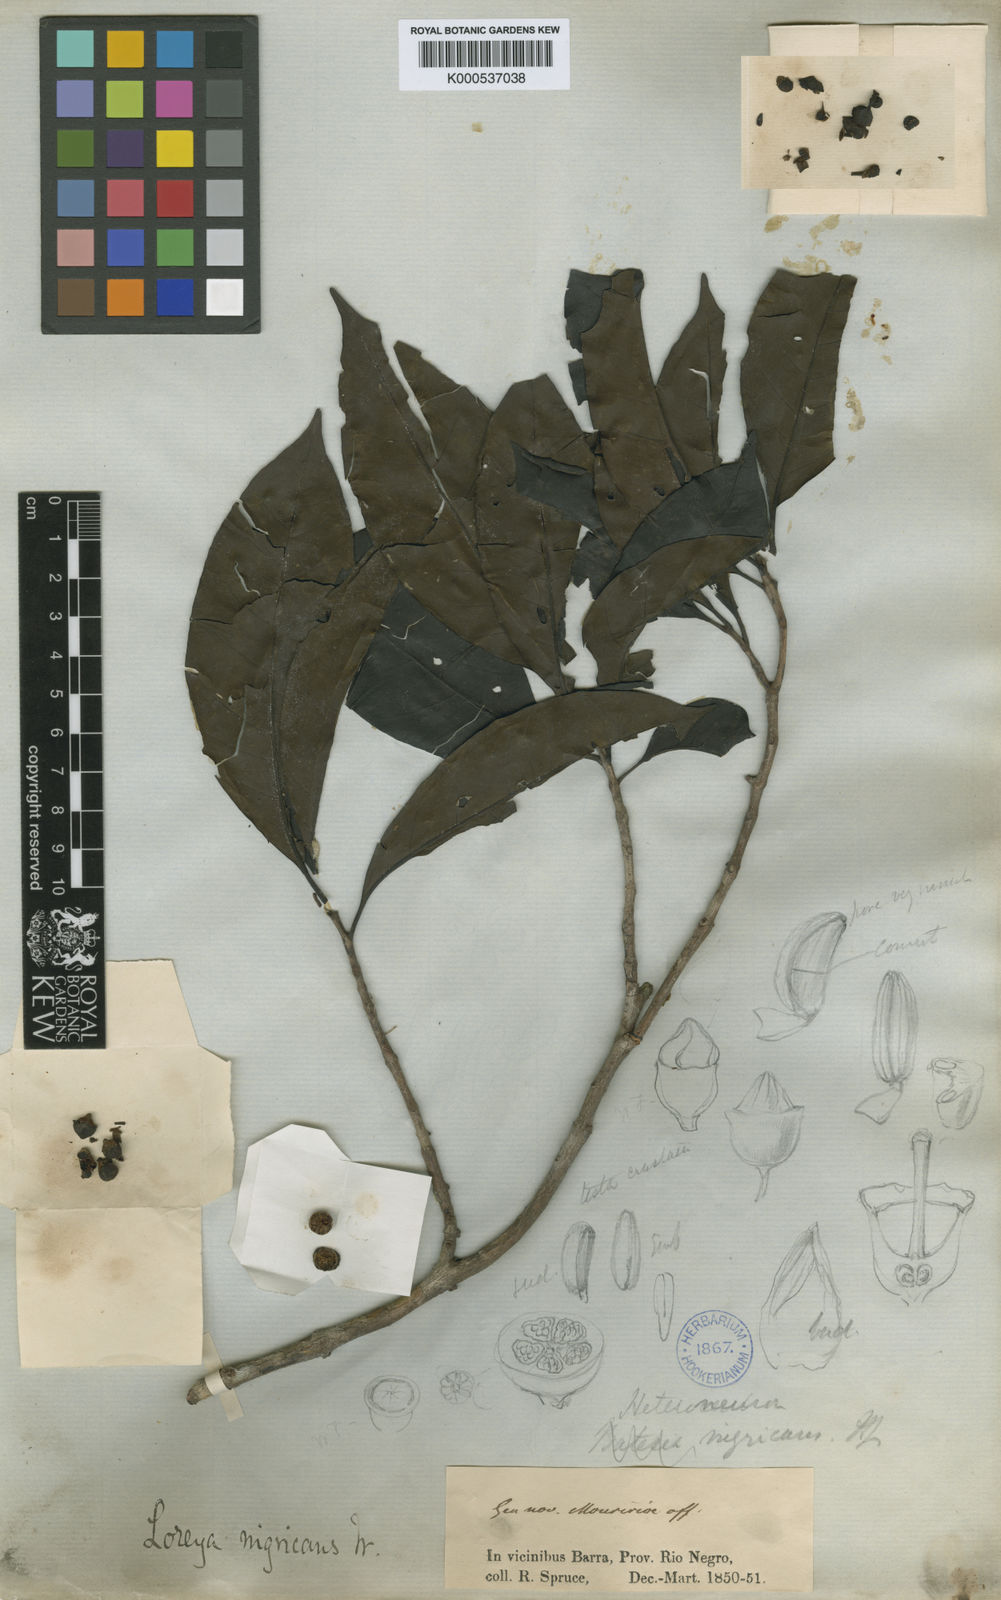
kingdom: Plantae
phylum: Tracheophyta
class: Magnoliopsida
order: Myrtales
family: Melastomataceae
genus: Bellucia
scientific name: Bellucia nigricans
